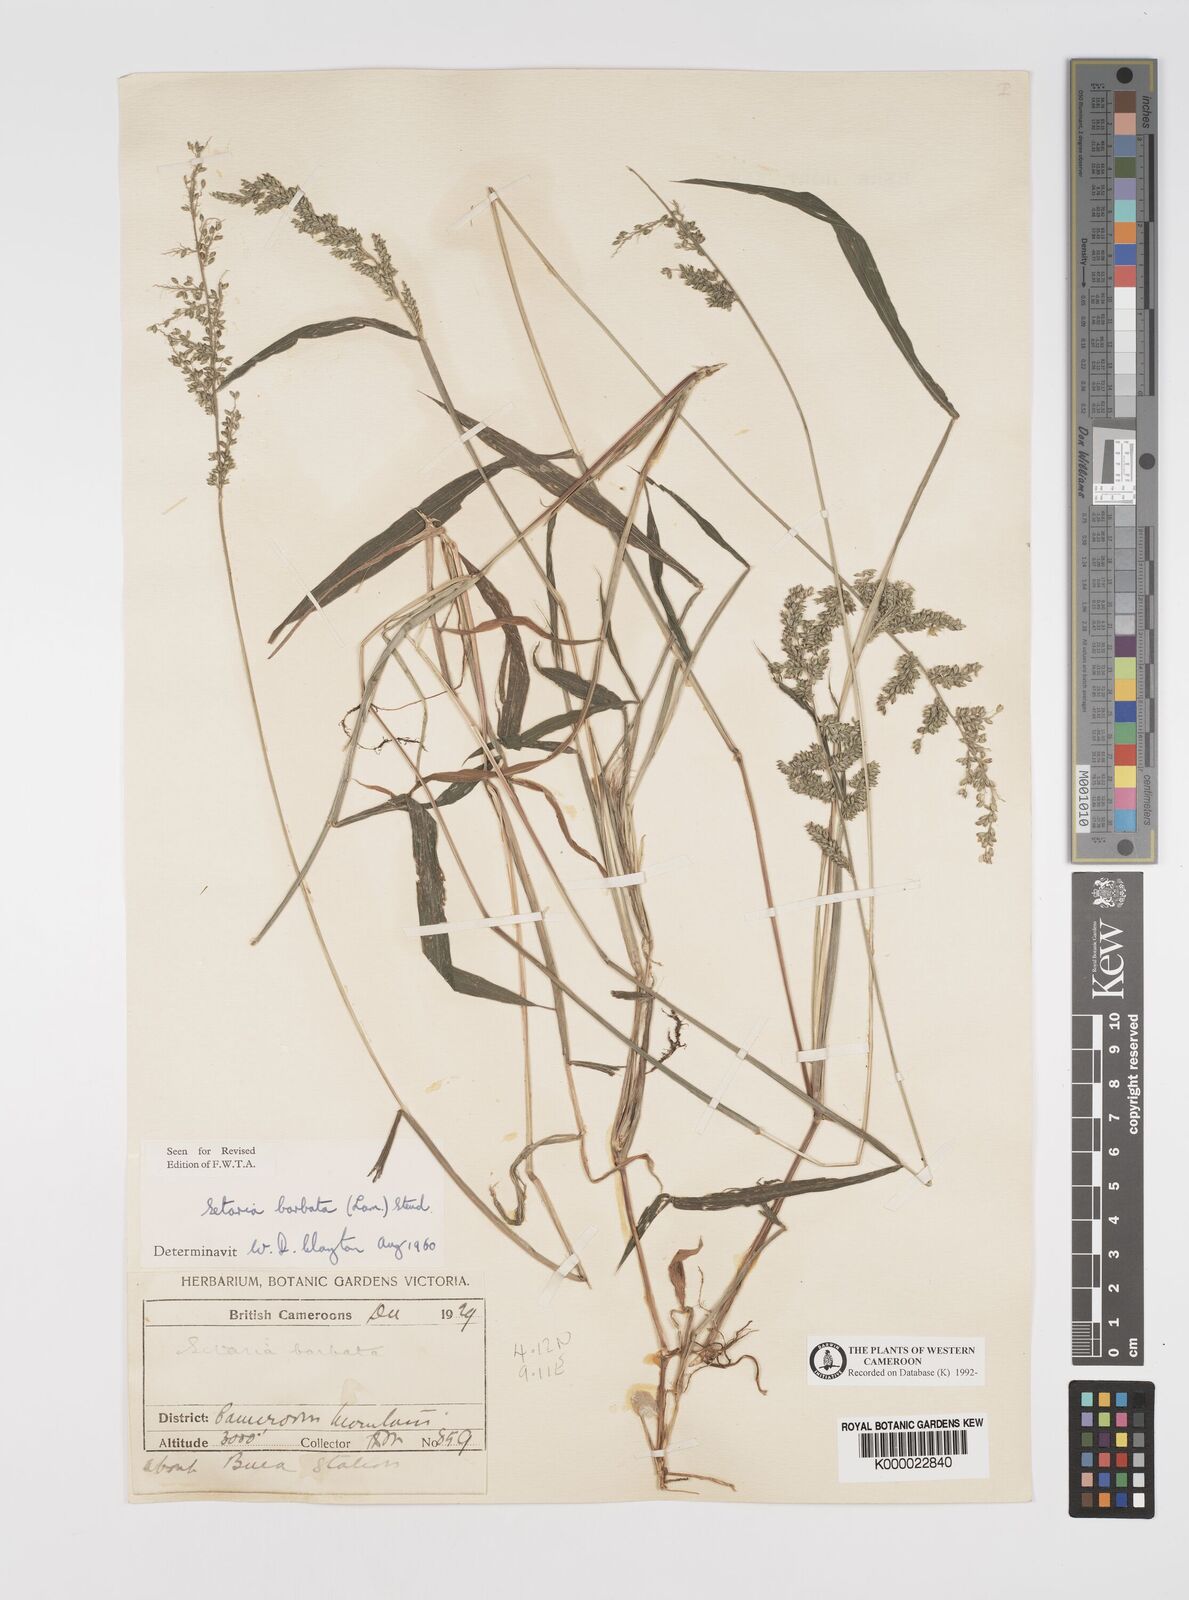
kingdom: Plantae
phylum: Tracheophyta
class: Liliopsida
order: Poales
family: Poaceae
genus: Setaria
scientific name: Setaria barbata
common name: East indian bristlegrass
